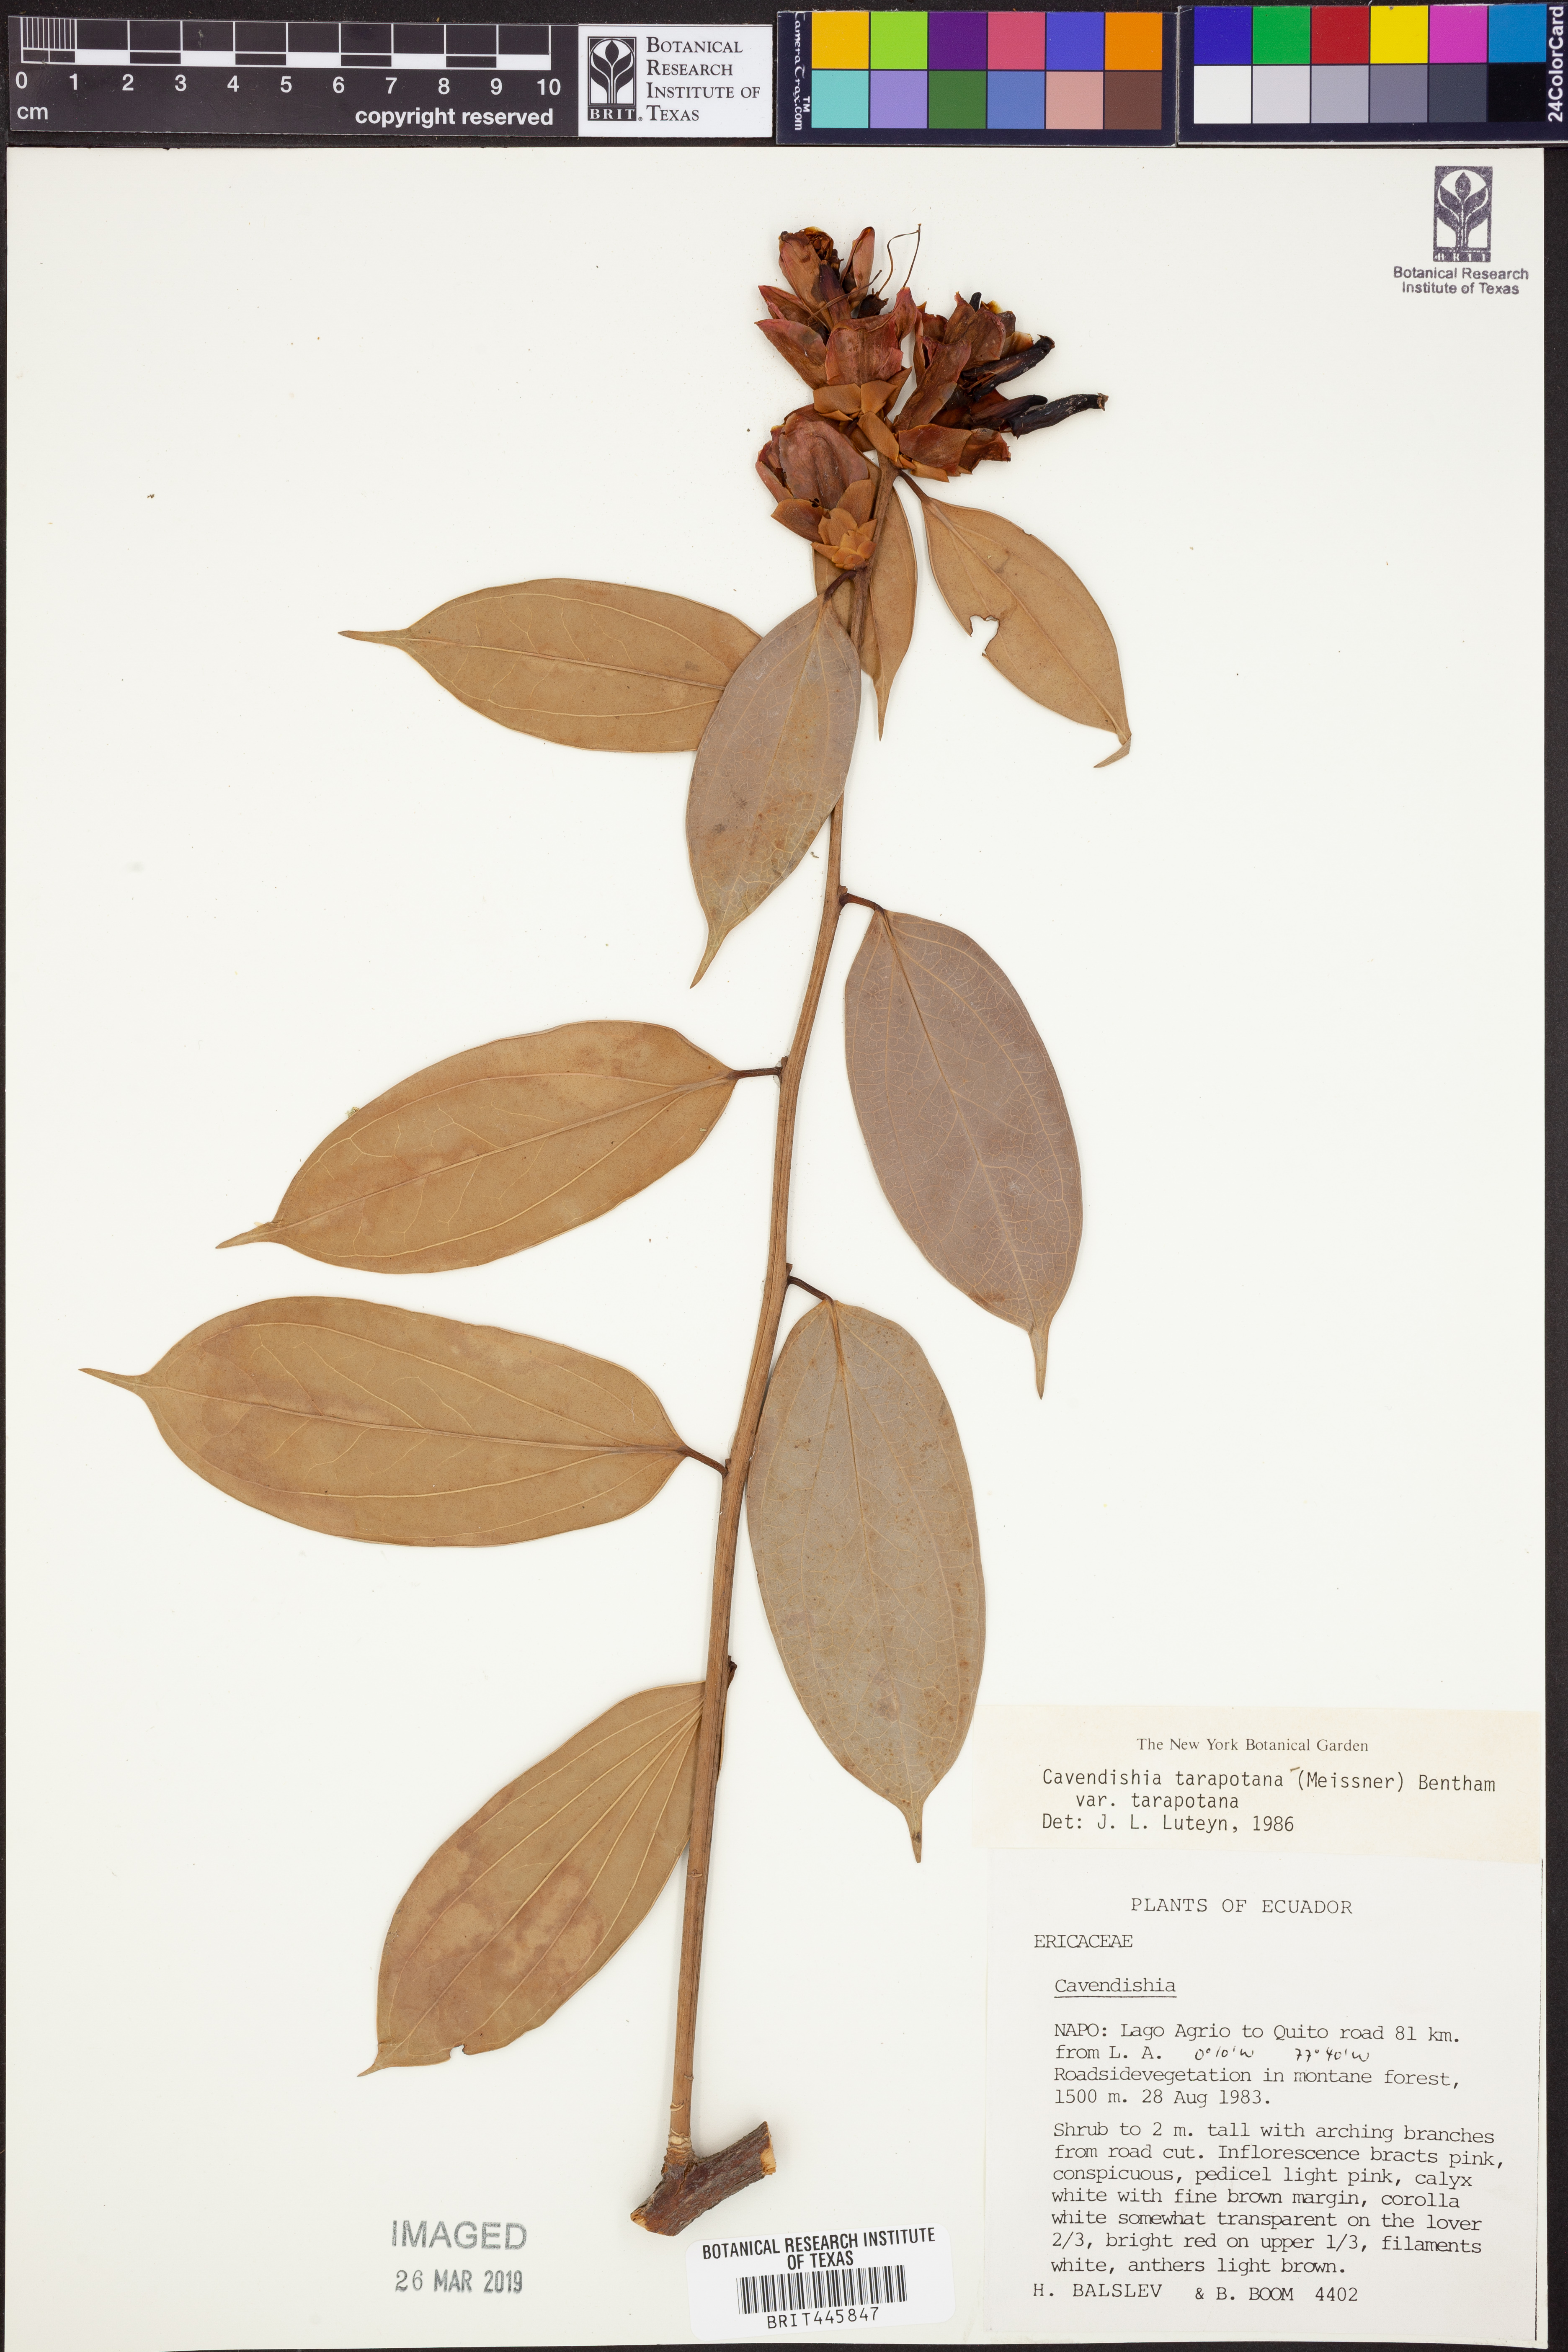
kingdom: Plantae
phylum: Tracheophyta
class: Magnoliopsida
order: Ericales
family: Ericaceae
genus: Cavendishia
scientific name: Cavendishia tarapotana
